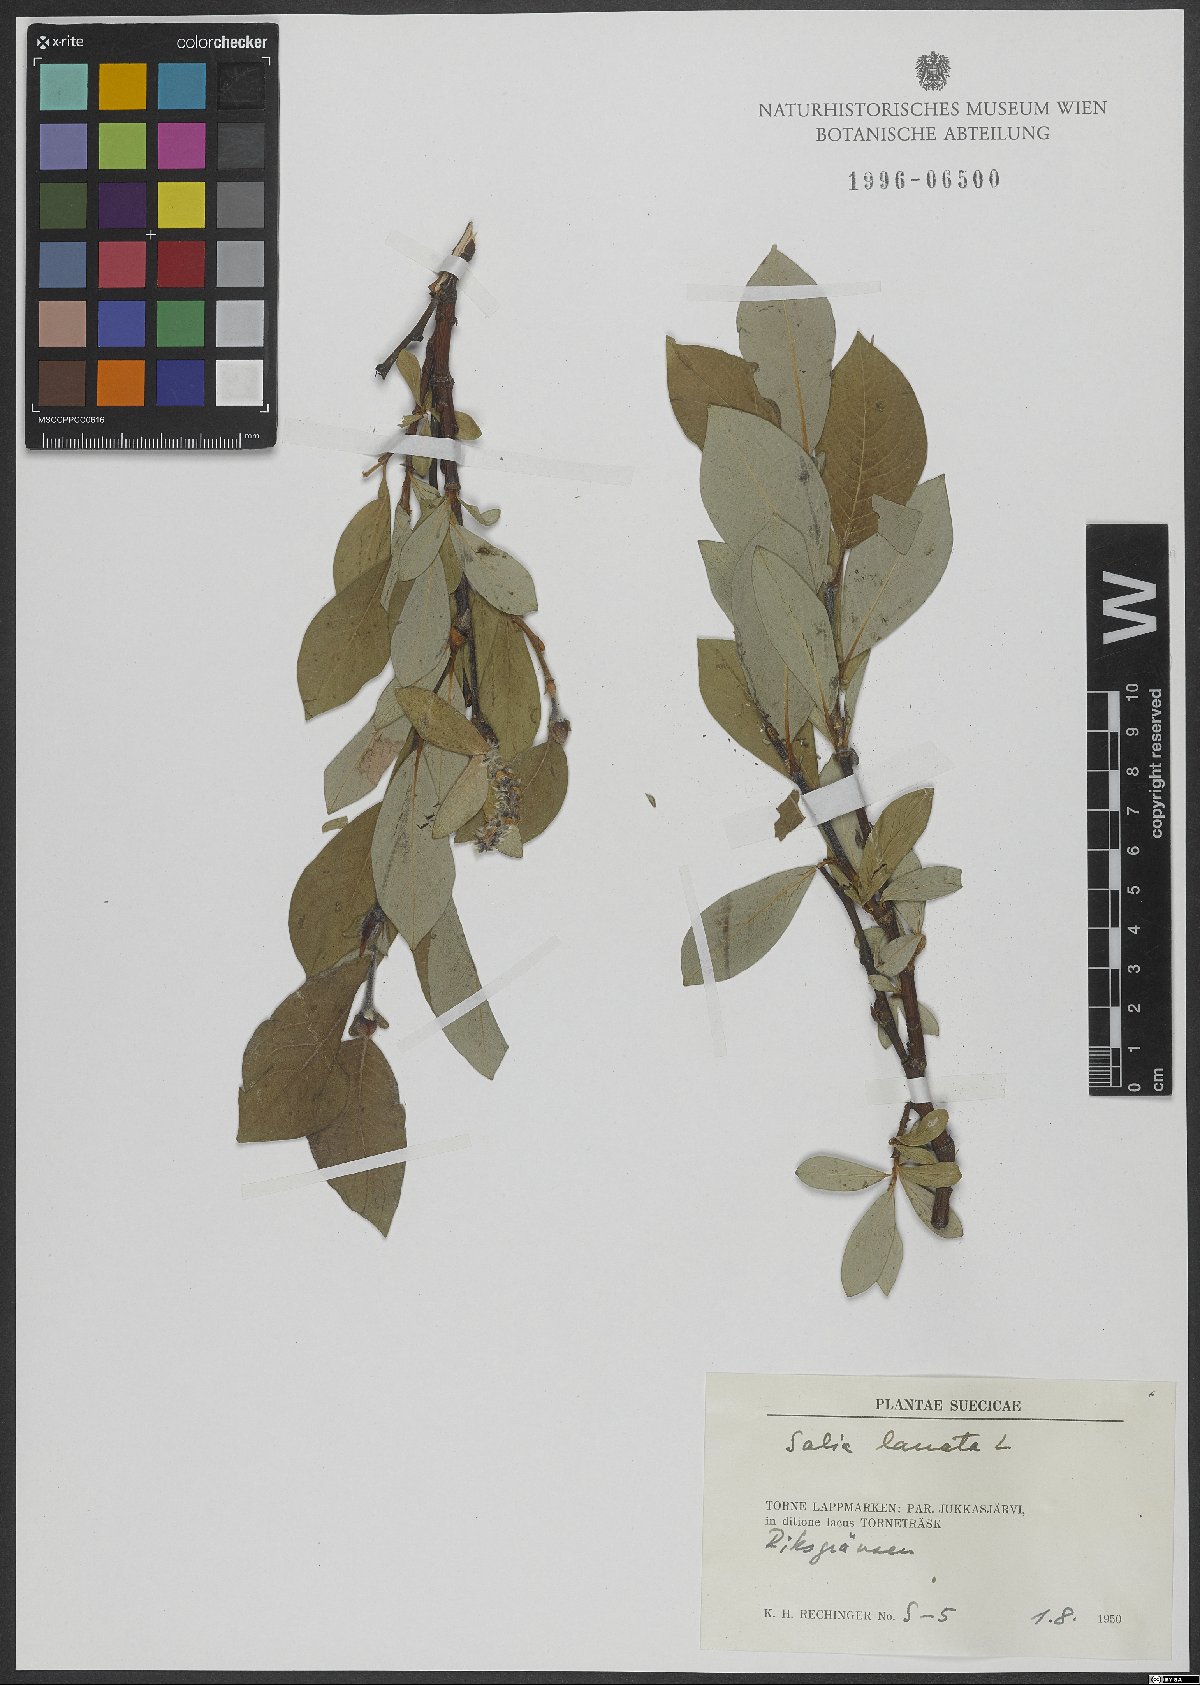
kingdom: Plantae
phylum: Tracheophyta
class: Magnoliopsida
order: Malpighiales
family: Salicaceae
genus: Salix
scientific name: Salix lanata
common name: Woolly willow
